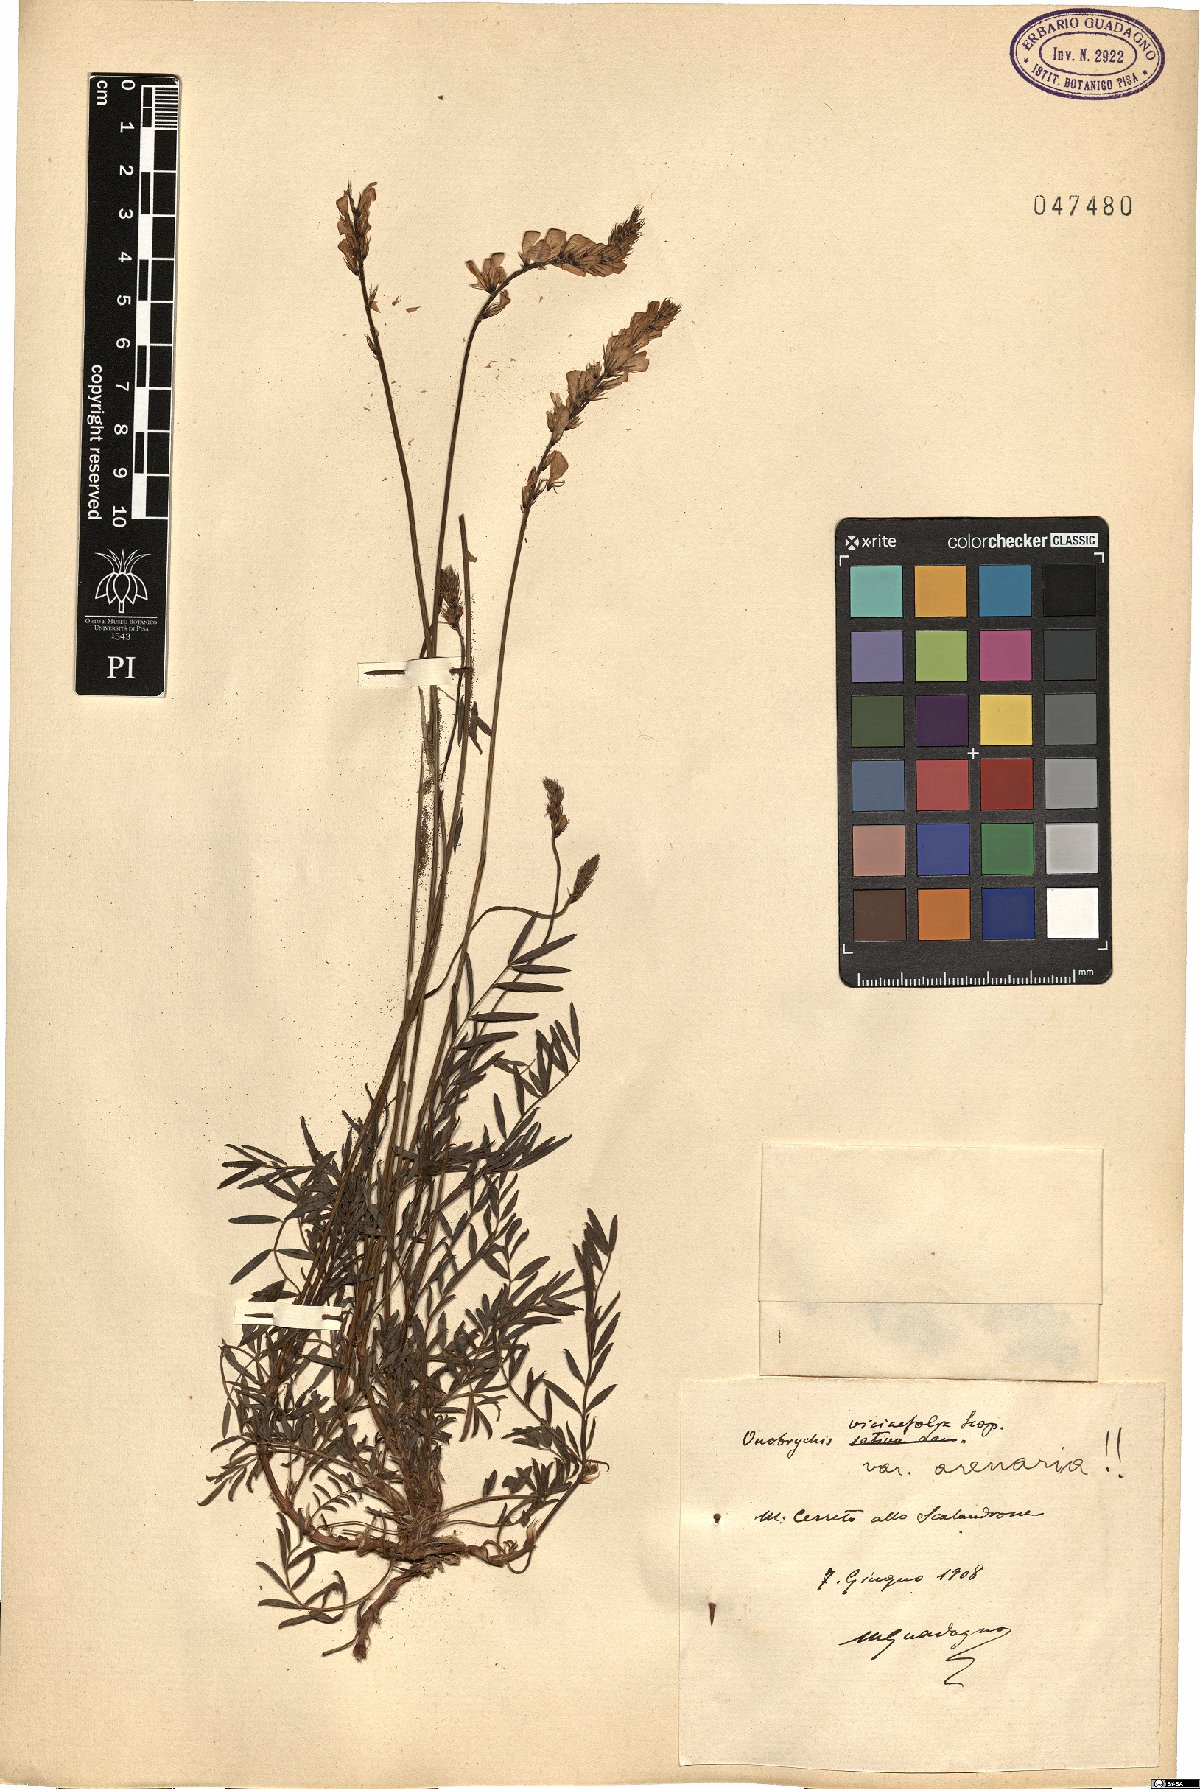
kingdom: Plantae
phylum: Tracheophyta
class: Magnoliopsida
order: Fabales
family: Fabaceae
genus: Onobrychis
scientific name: Onobrychis arenaria
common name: Sand esparcet
